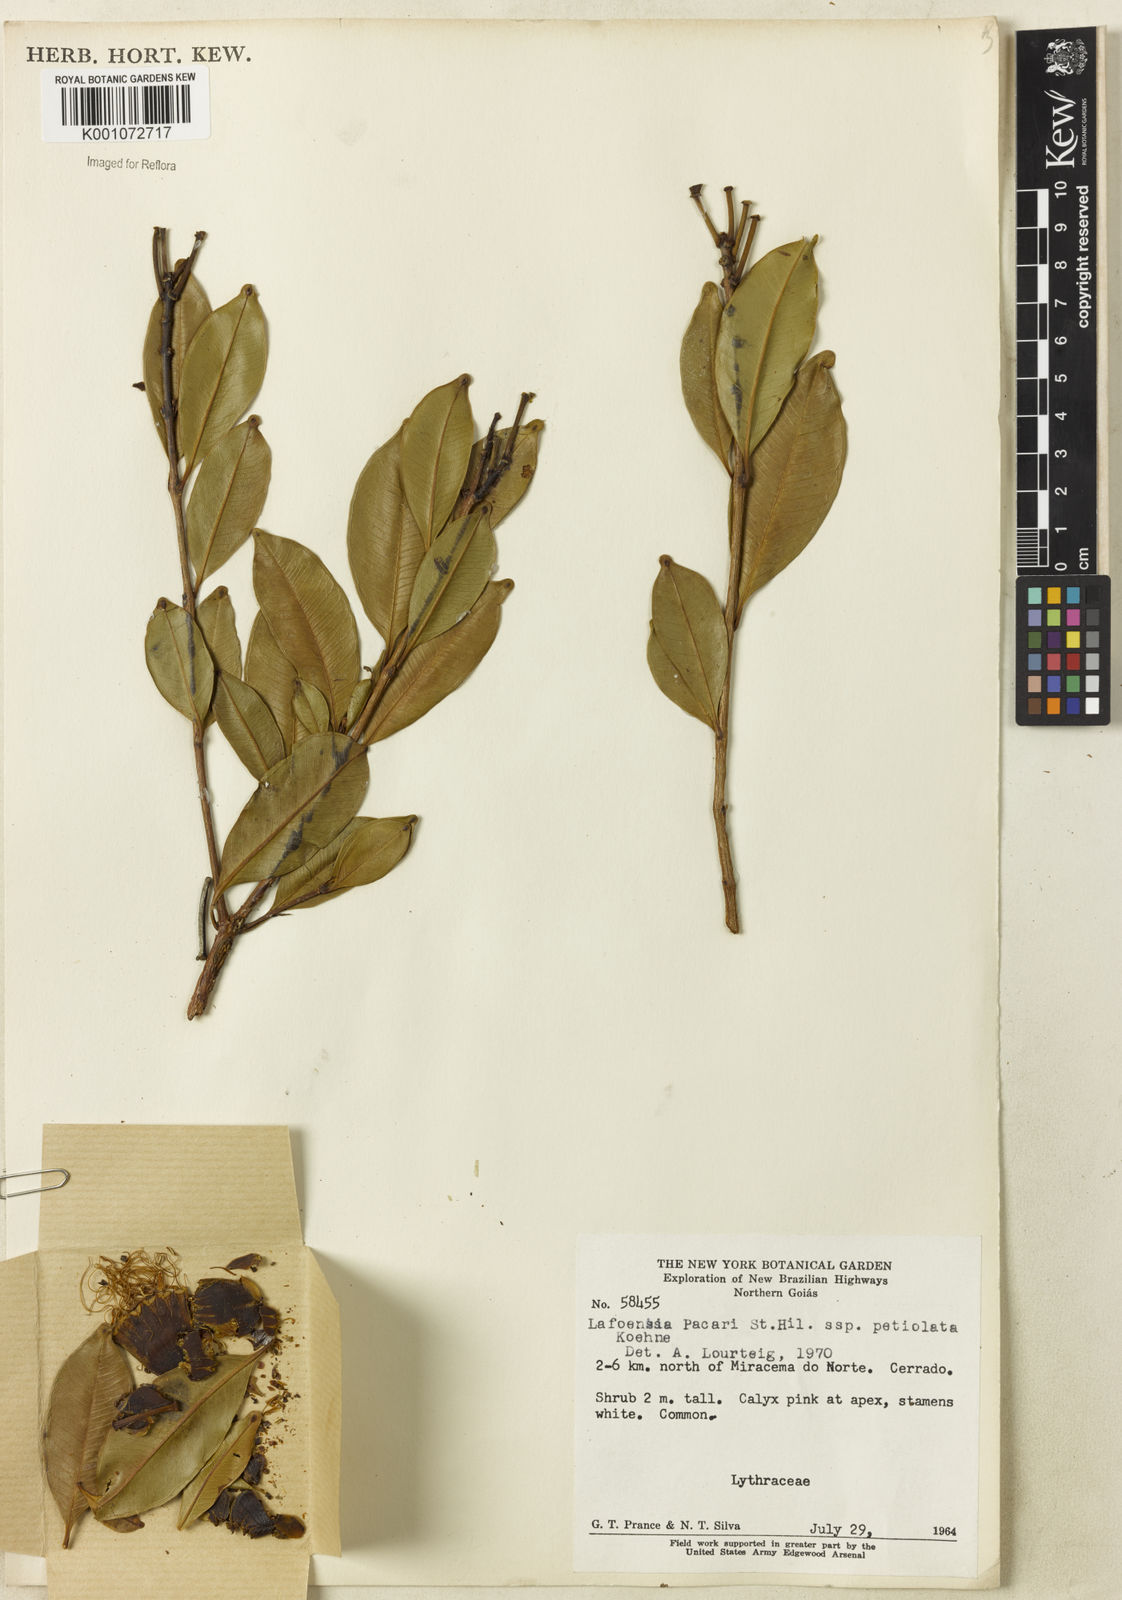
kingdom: Plantae
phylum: Tracheophyta
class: Magnoliopsida
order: Myrtales
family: Lythraceae
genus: Lafoensia
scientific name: Lafoensia pacari
